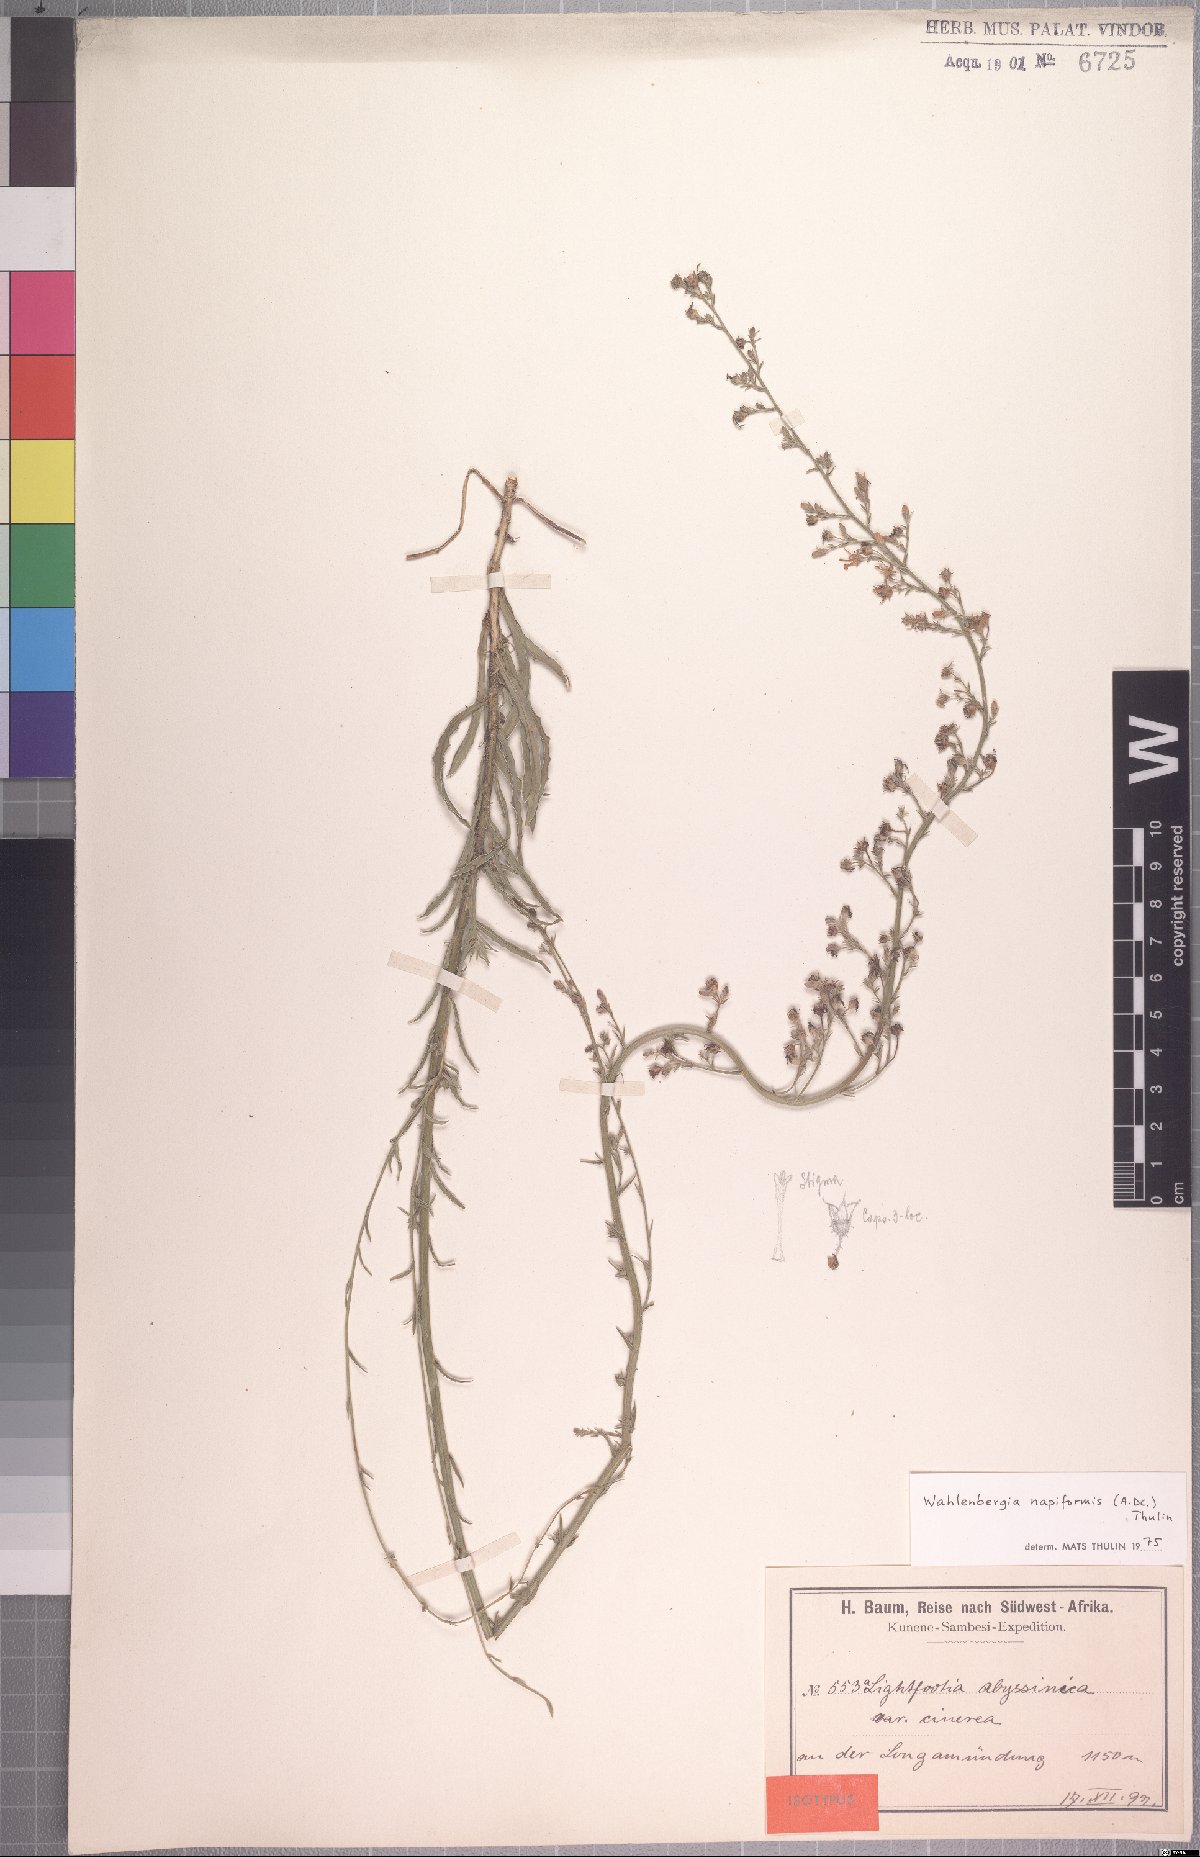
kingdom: Plantae
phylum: Tracheophyta
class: Magnoliopsida
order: Asterales
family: Campanulaceae
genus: Wahlenbergia
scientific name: Wahlenbergia napiformis
